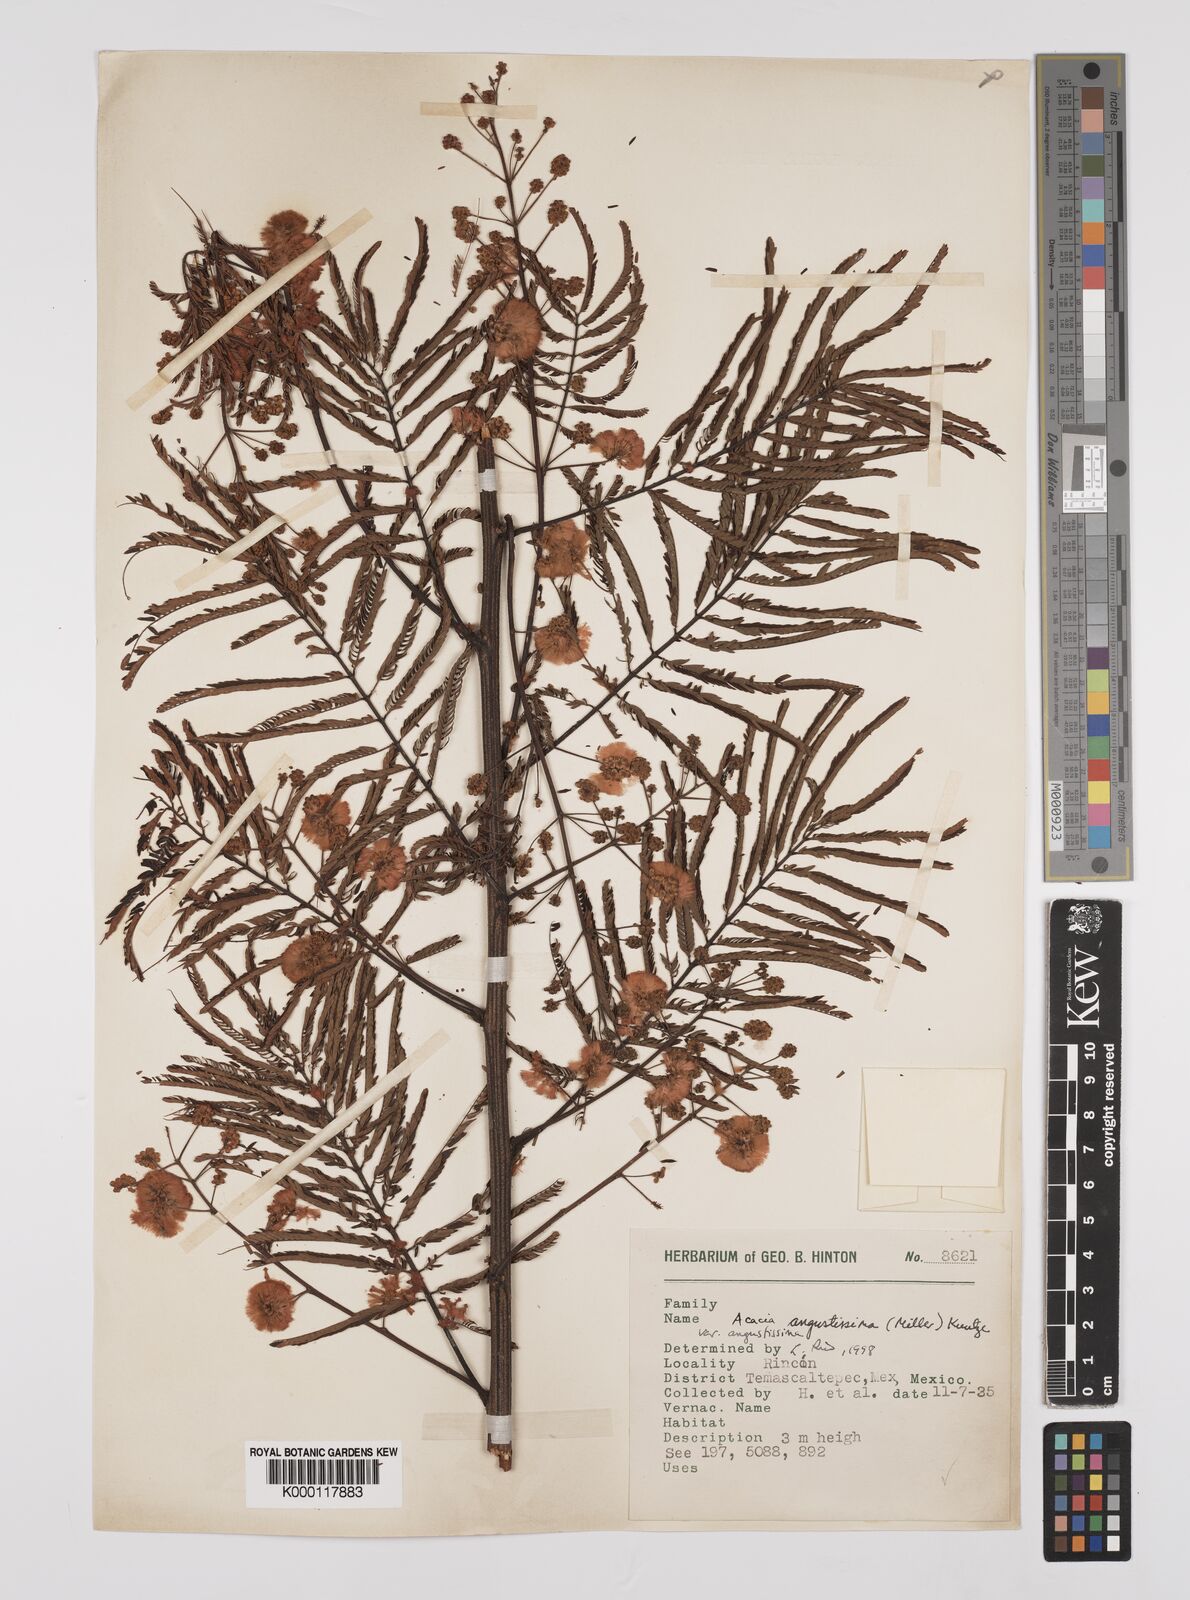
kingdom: Plantae
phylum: Tracheophyta
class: Magnoliopsida
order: Fabales
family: Fabaceae
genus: Acaciella
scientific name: Acaciella angustissima
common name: Prairie acacia
